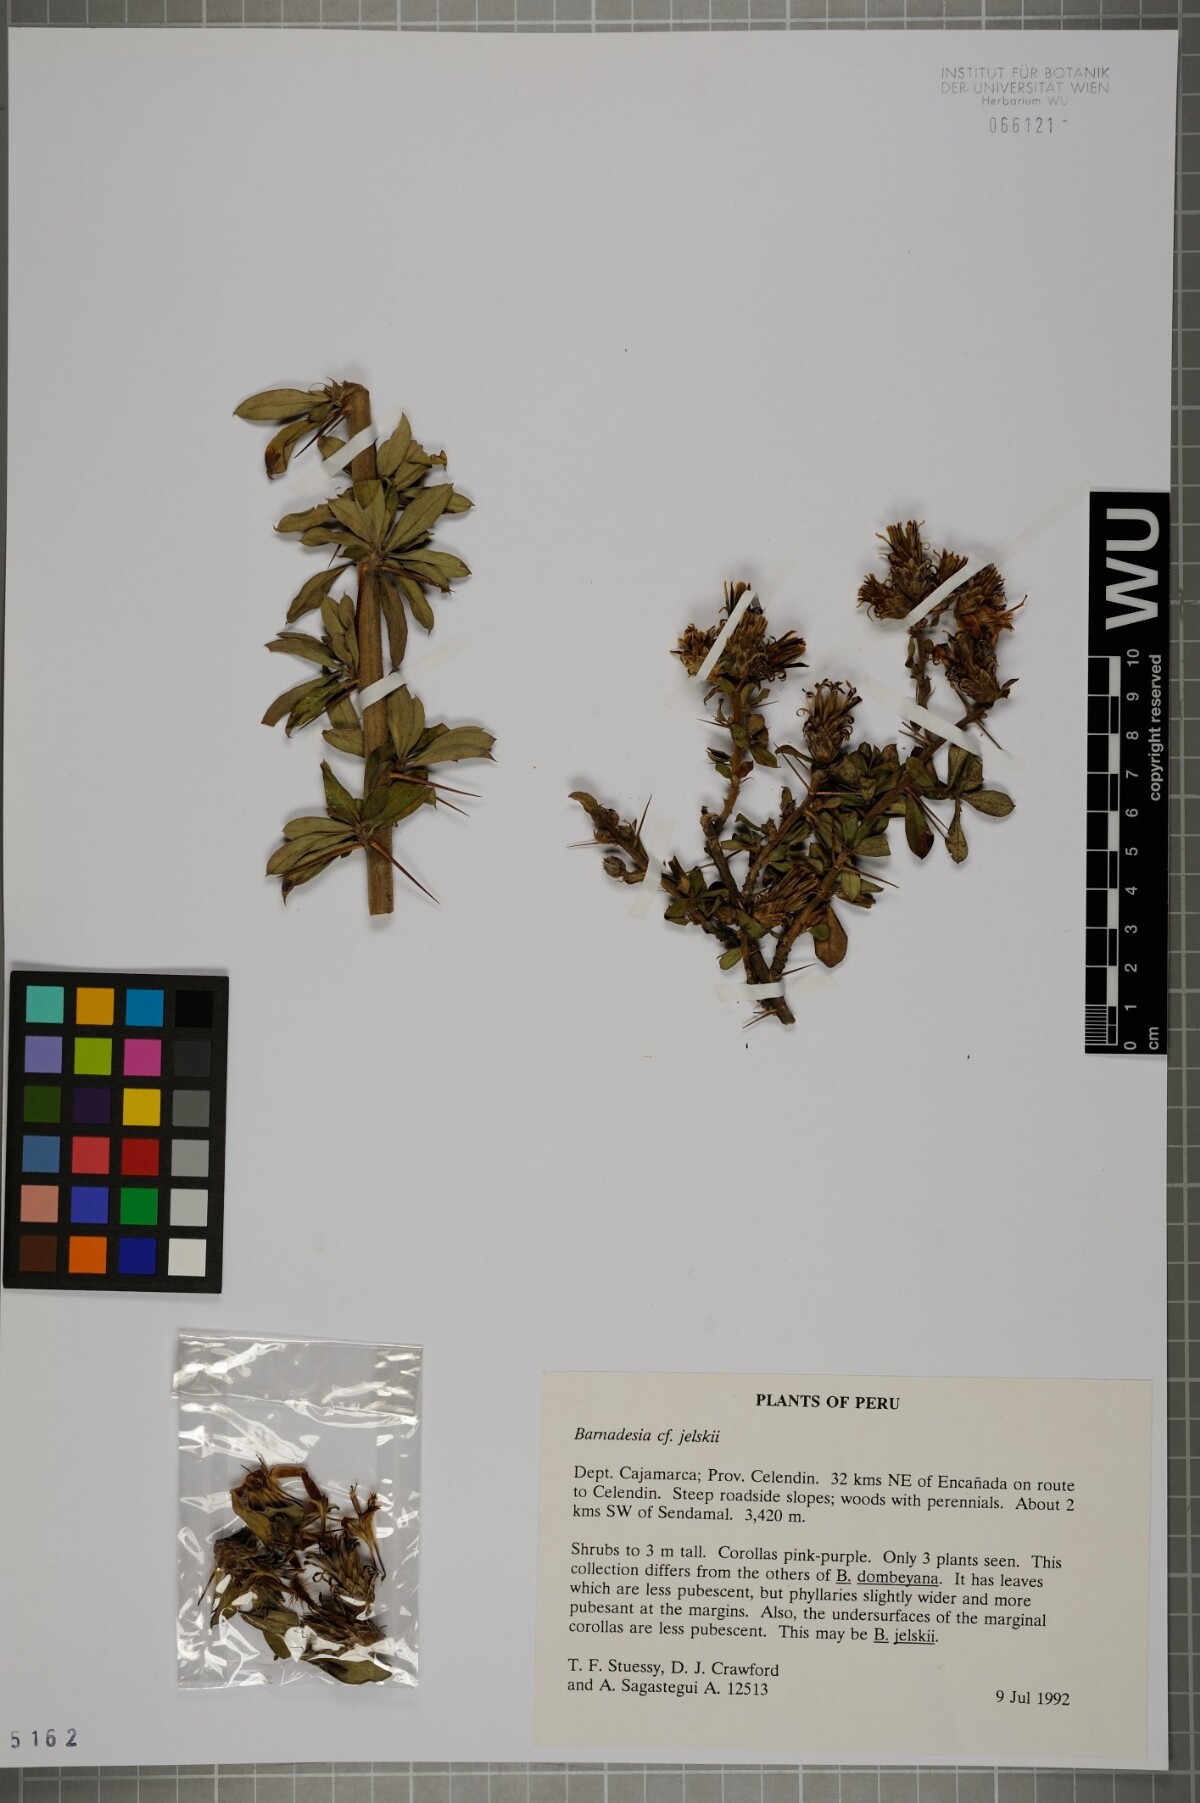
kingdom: Plantae
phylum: Tracheophyta
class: Magnoliopsida
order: Asterales
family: Asteraceae
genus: Barnadesia
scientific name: Barnadesia jelskii
